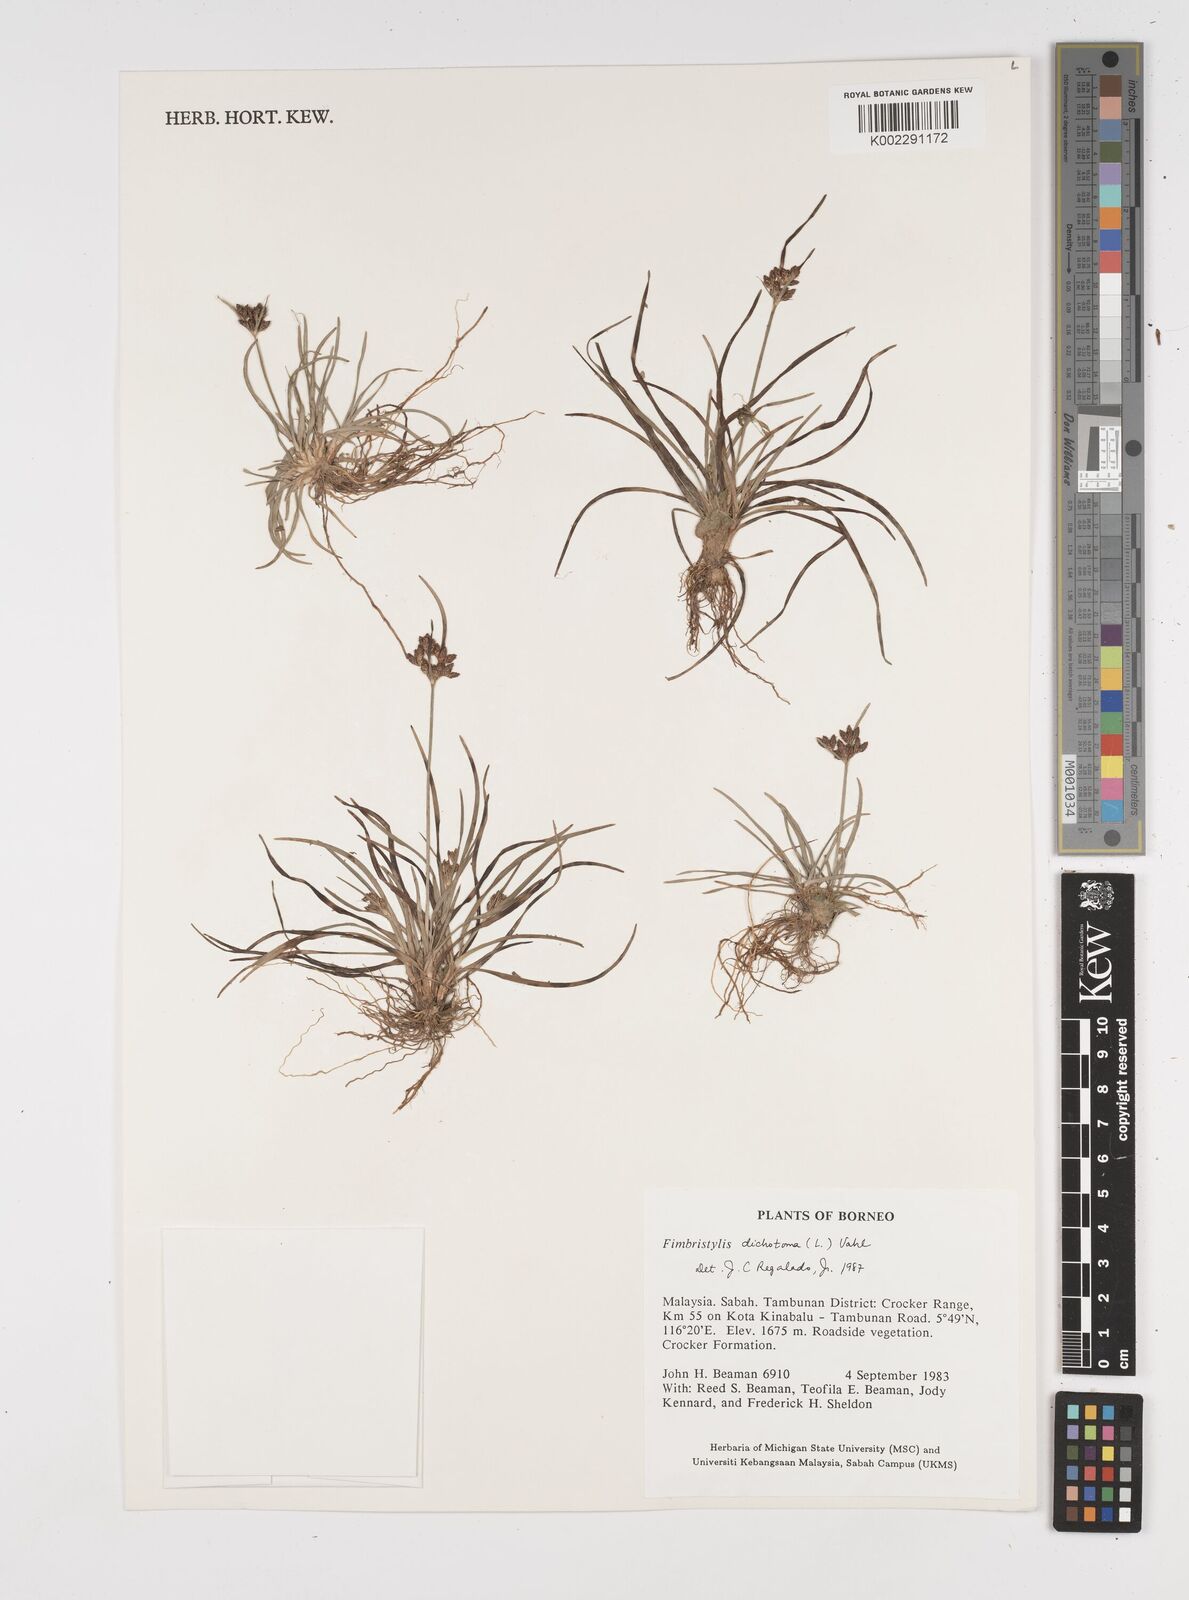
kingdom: Plantae
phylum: Tracheophyta
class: Liliopsida
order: Poales
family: Cyperaceae
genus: Fimbristylis
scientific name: Fimbristylis dichotoma
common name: Forked fimbry
